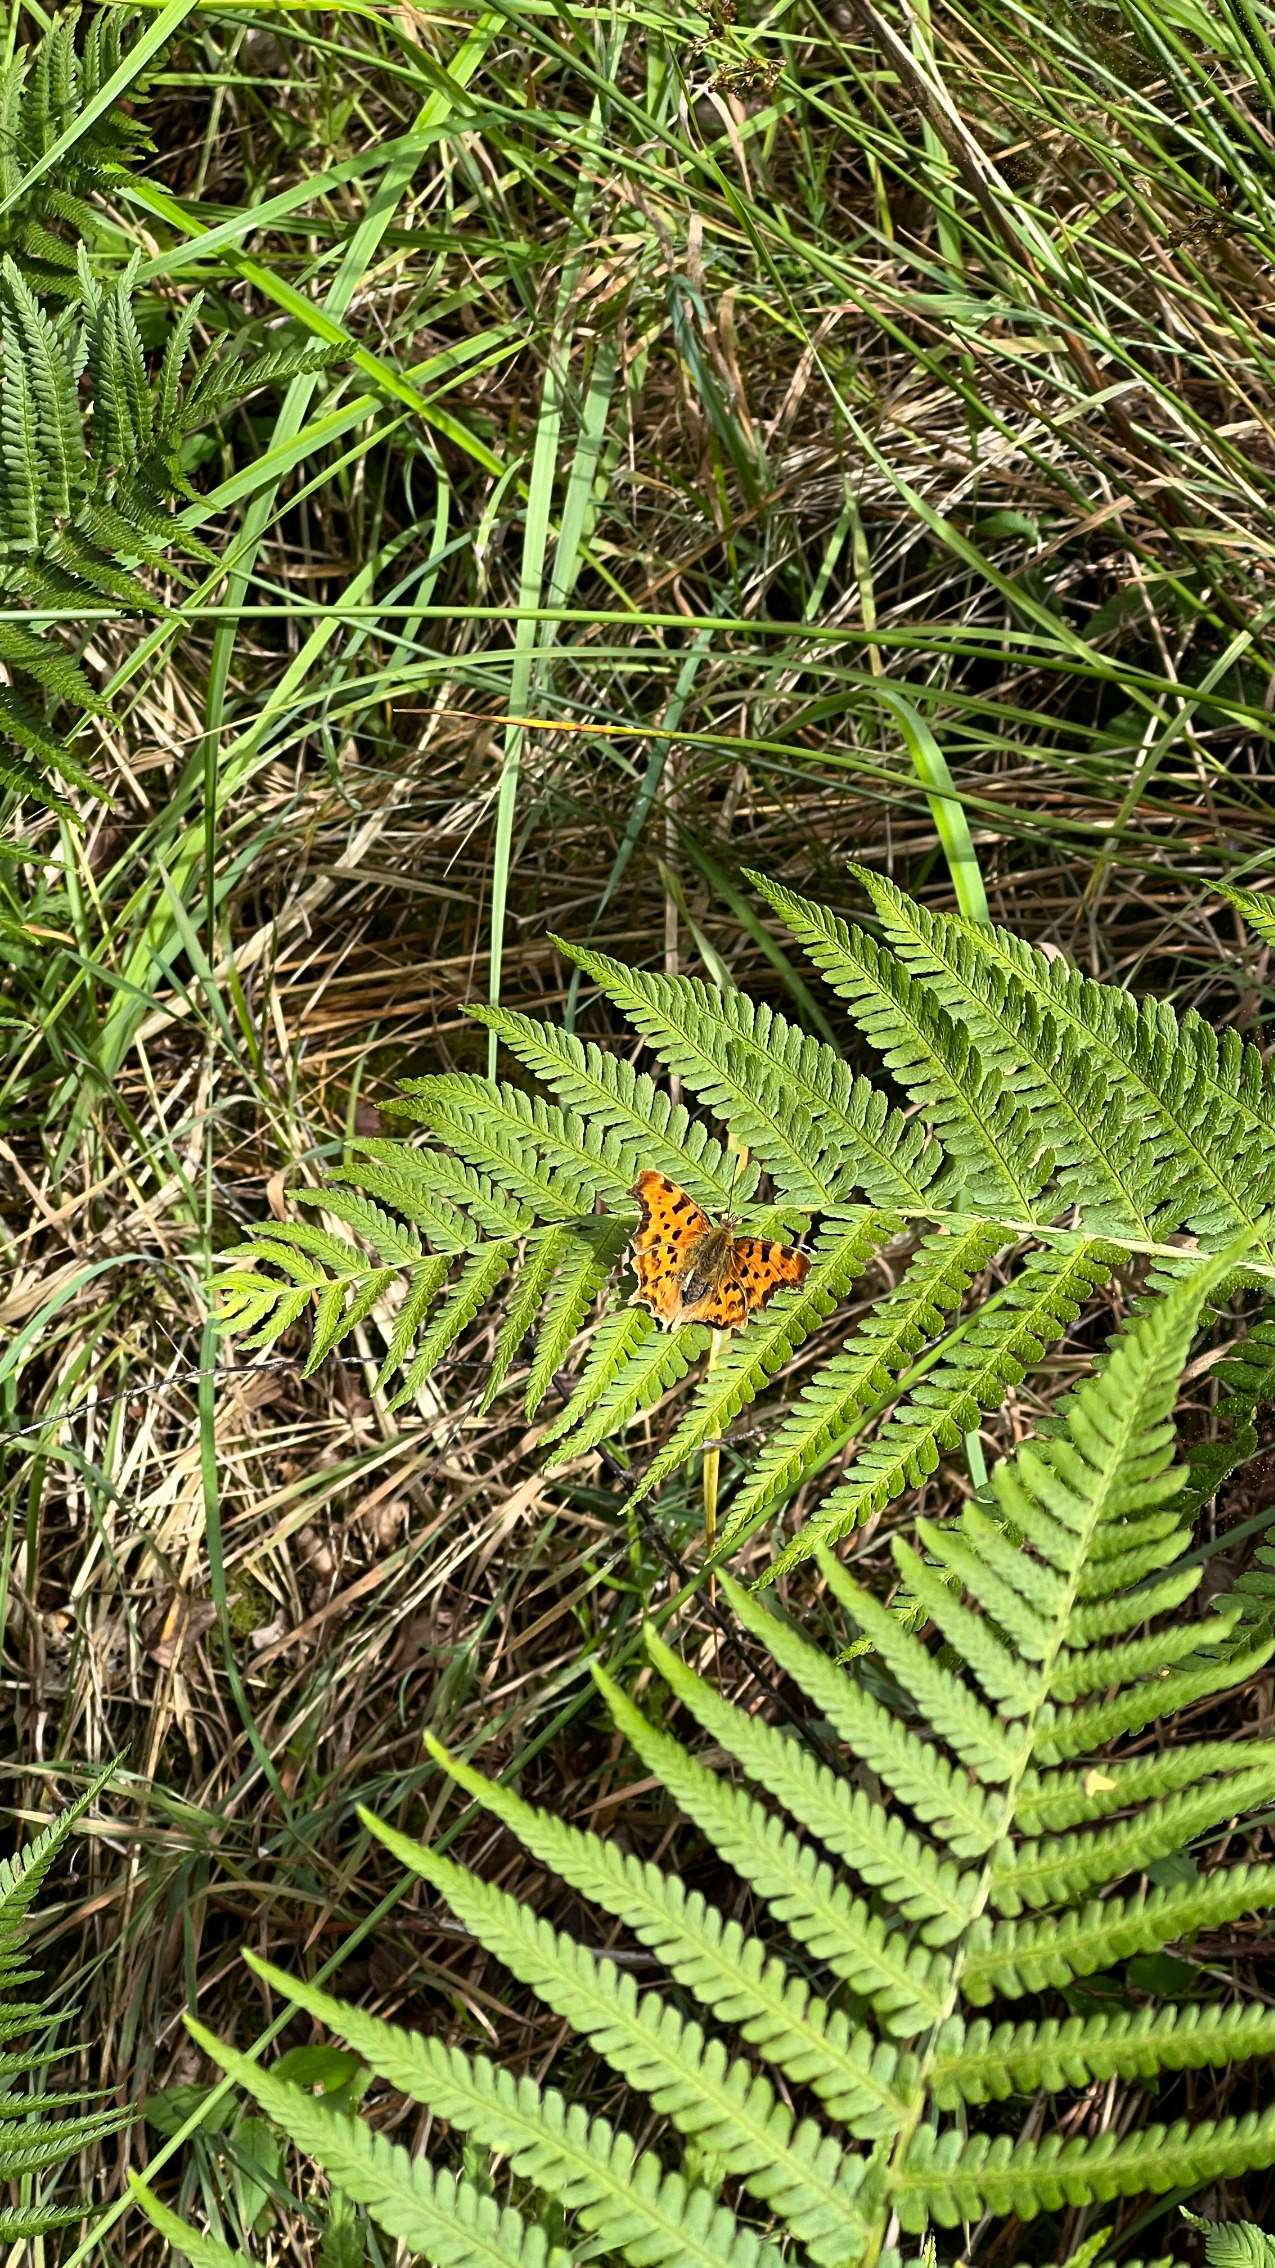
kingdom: Animalia
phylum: Arthropoda
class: Insecta
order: Lepidoptera
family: Nymphalidae
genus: Polygonia
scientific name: Polygonia c-album
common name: Det hvide C
